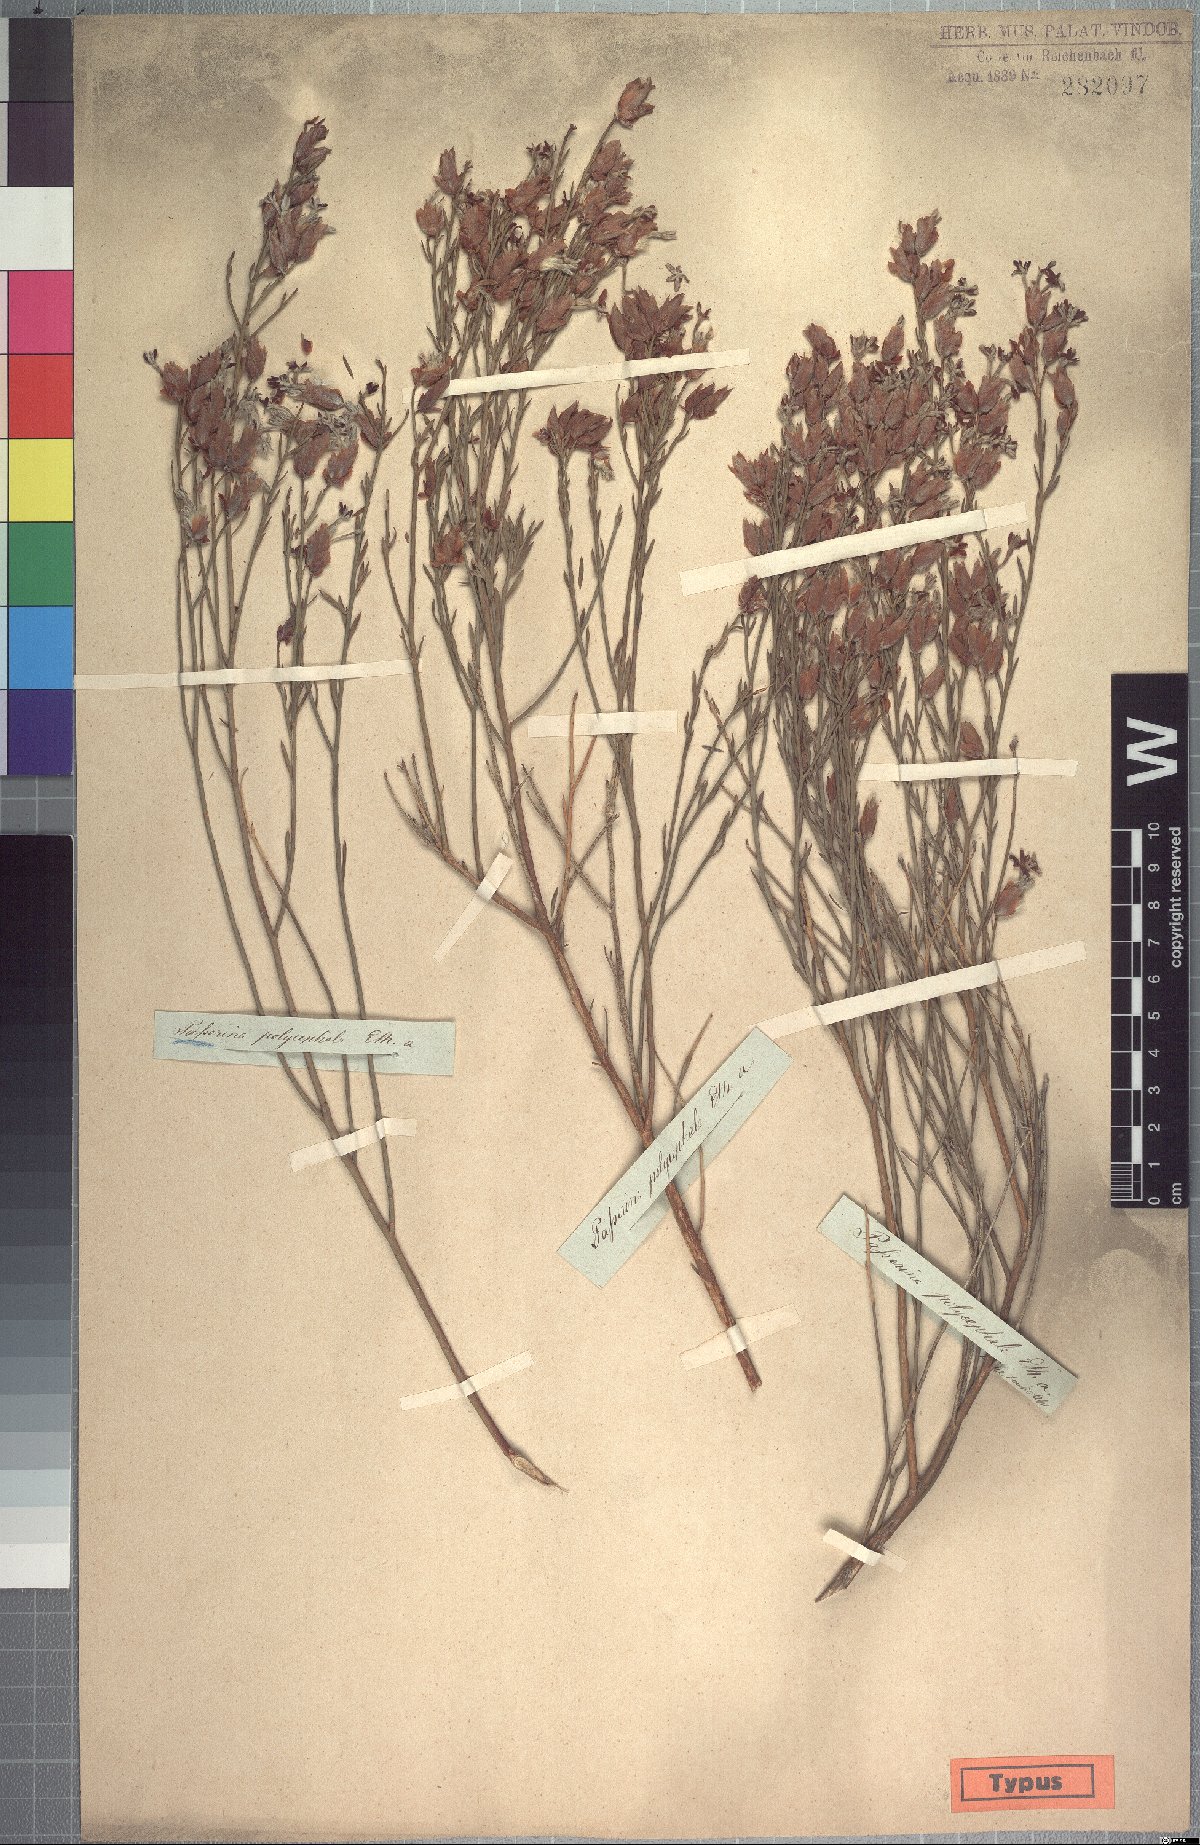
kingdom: Plantae
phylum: Tracheophyta
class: Magnoliopsida
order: Malvales
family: Thymelaeaceae
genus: Gnidia
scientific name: Gnidia polycephala
